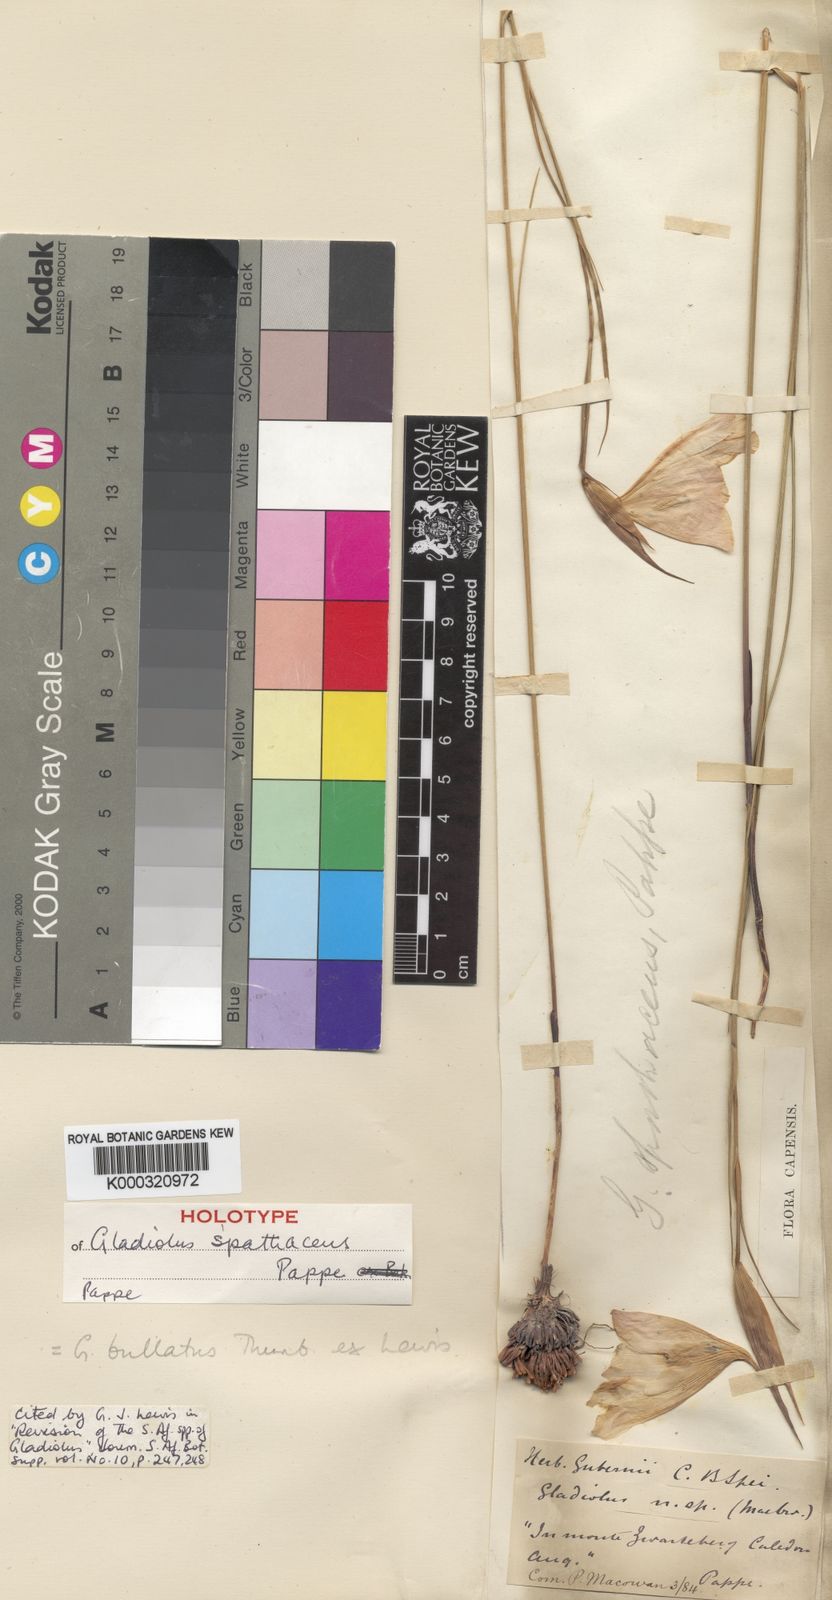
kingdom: Plantae
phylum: Tracheophyta
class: Liliopsida
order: Asparagales
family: Iridaceae
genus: Gladiolus
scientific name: Gladiolus
